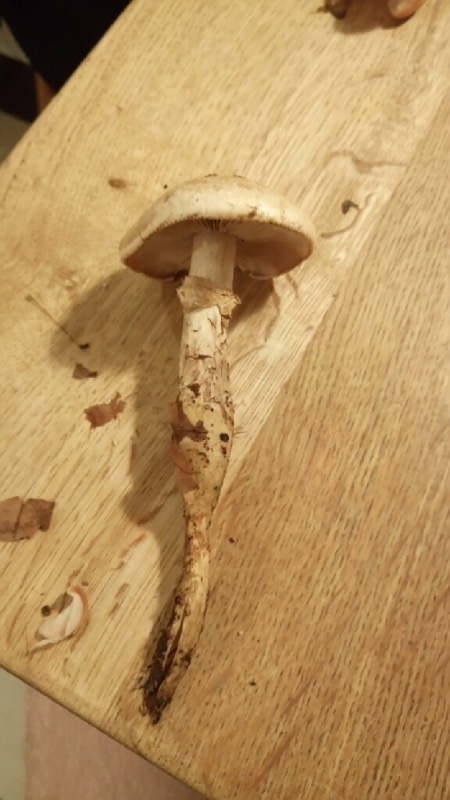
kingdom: Fungi
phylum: Basidiomycota
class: Agaricomycetes
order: Agaricales
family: Hymenogastraceae
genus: Hebeloma
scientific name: Hebeloma radicosum
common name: pælerods-tåreblad
